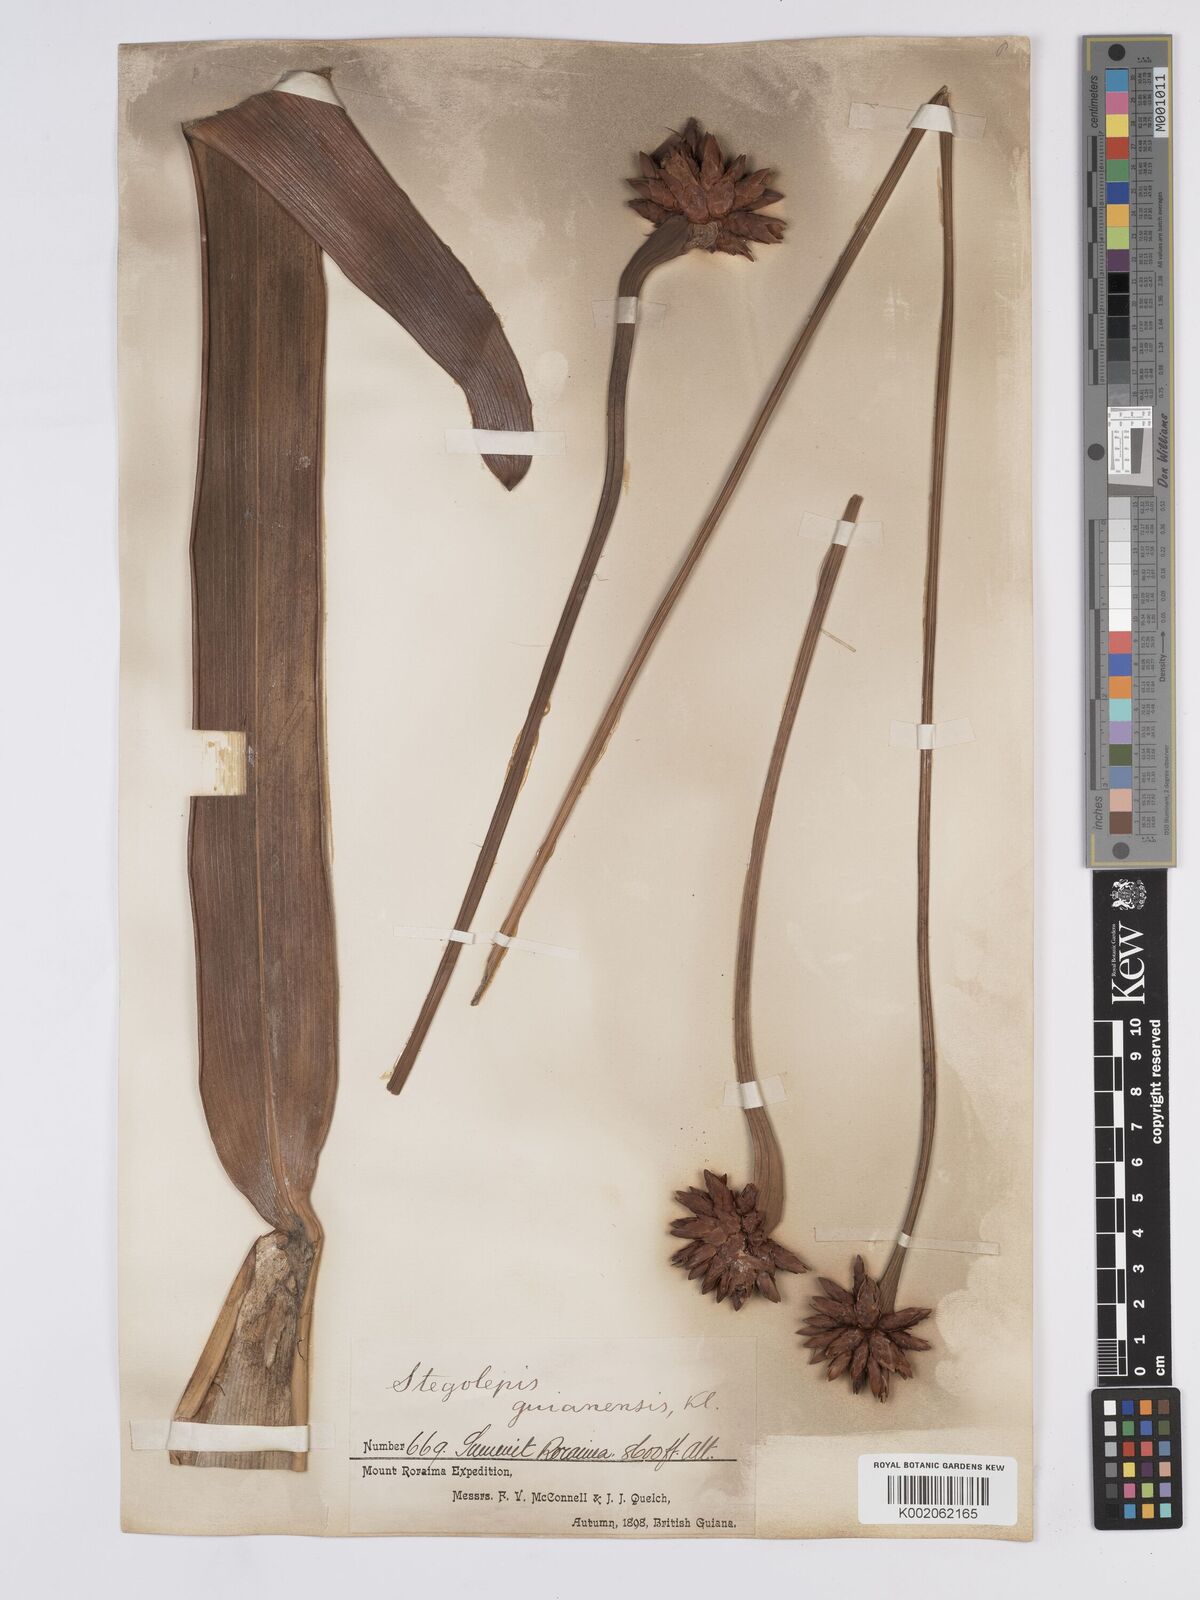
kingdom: Plantae
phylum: Tracheophyta
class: Liliopsida
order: Poales
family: Rapateaceae
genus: Stegolepis
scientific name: Stegolepis guianensis
